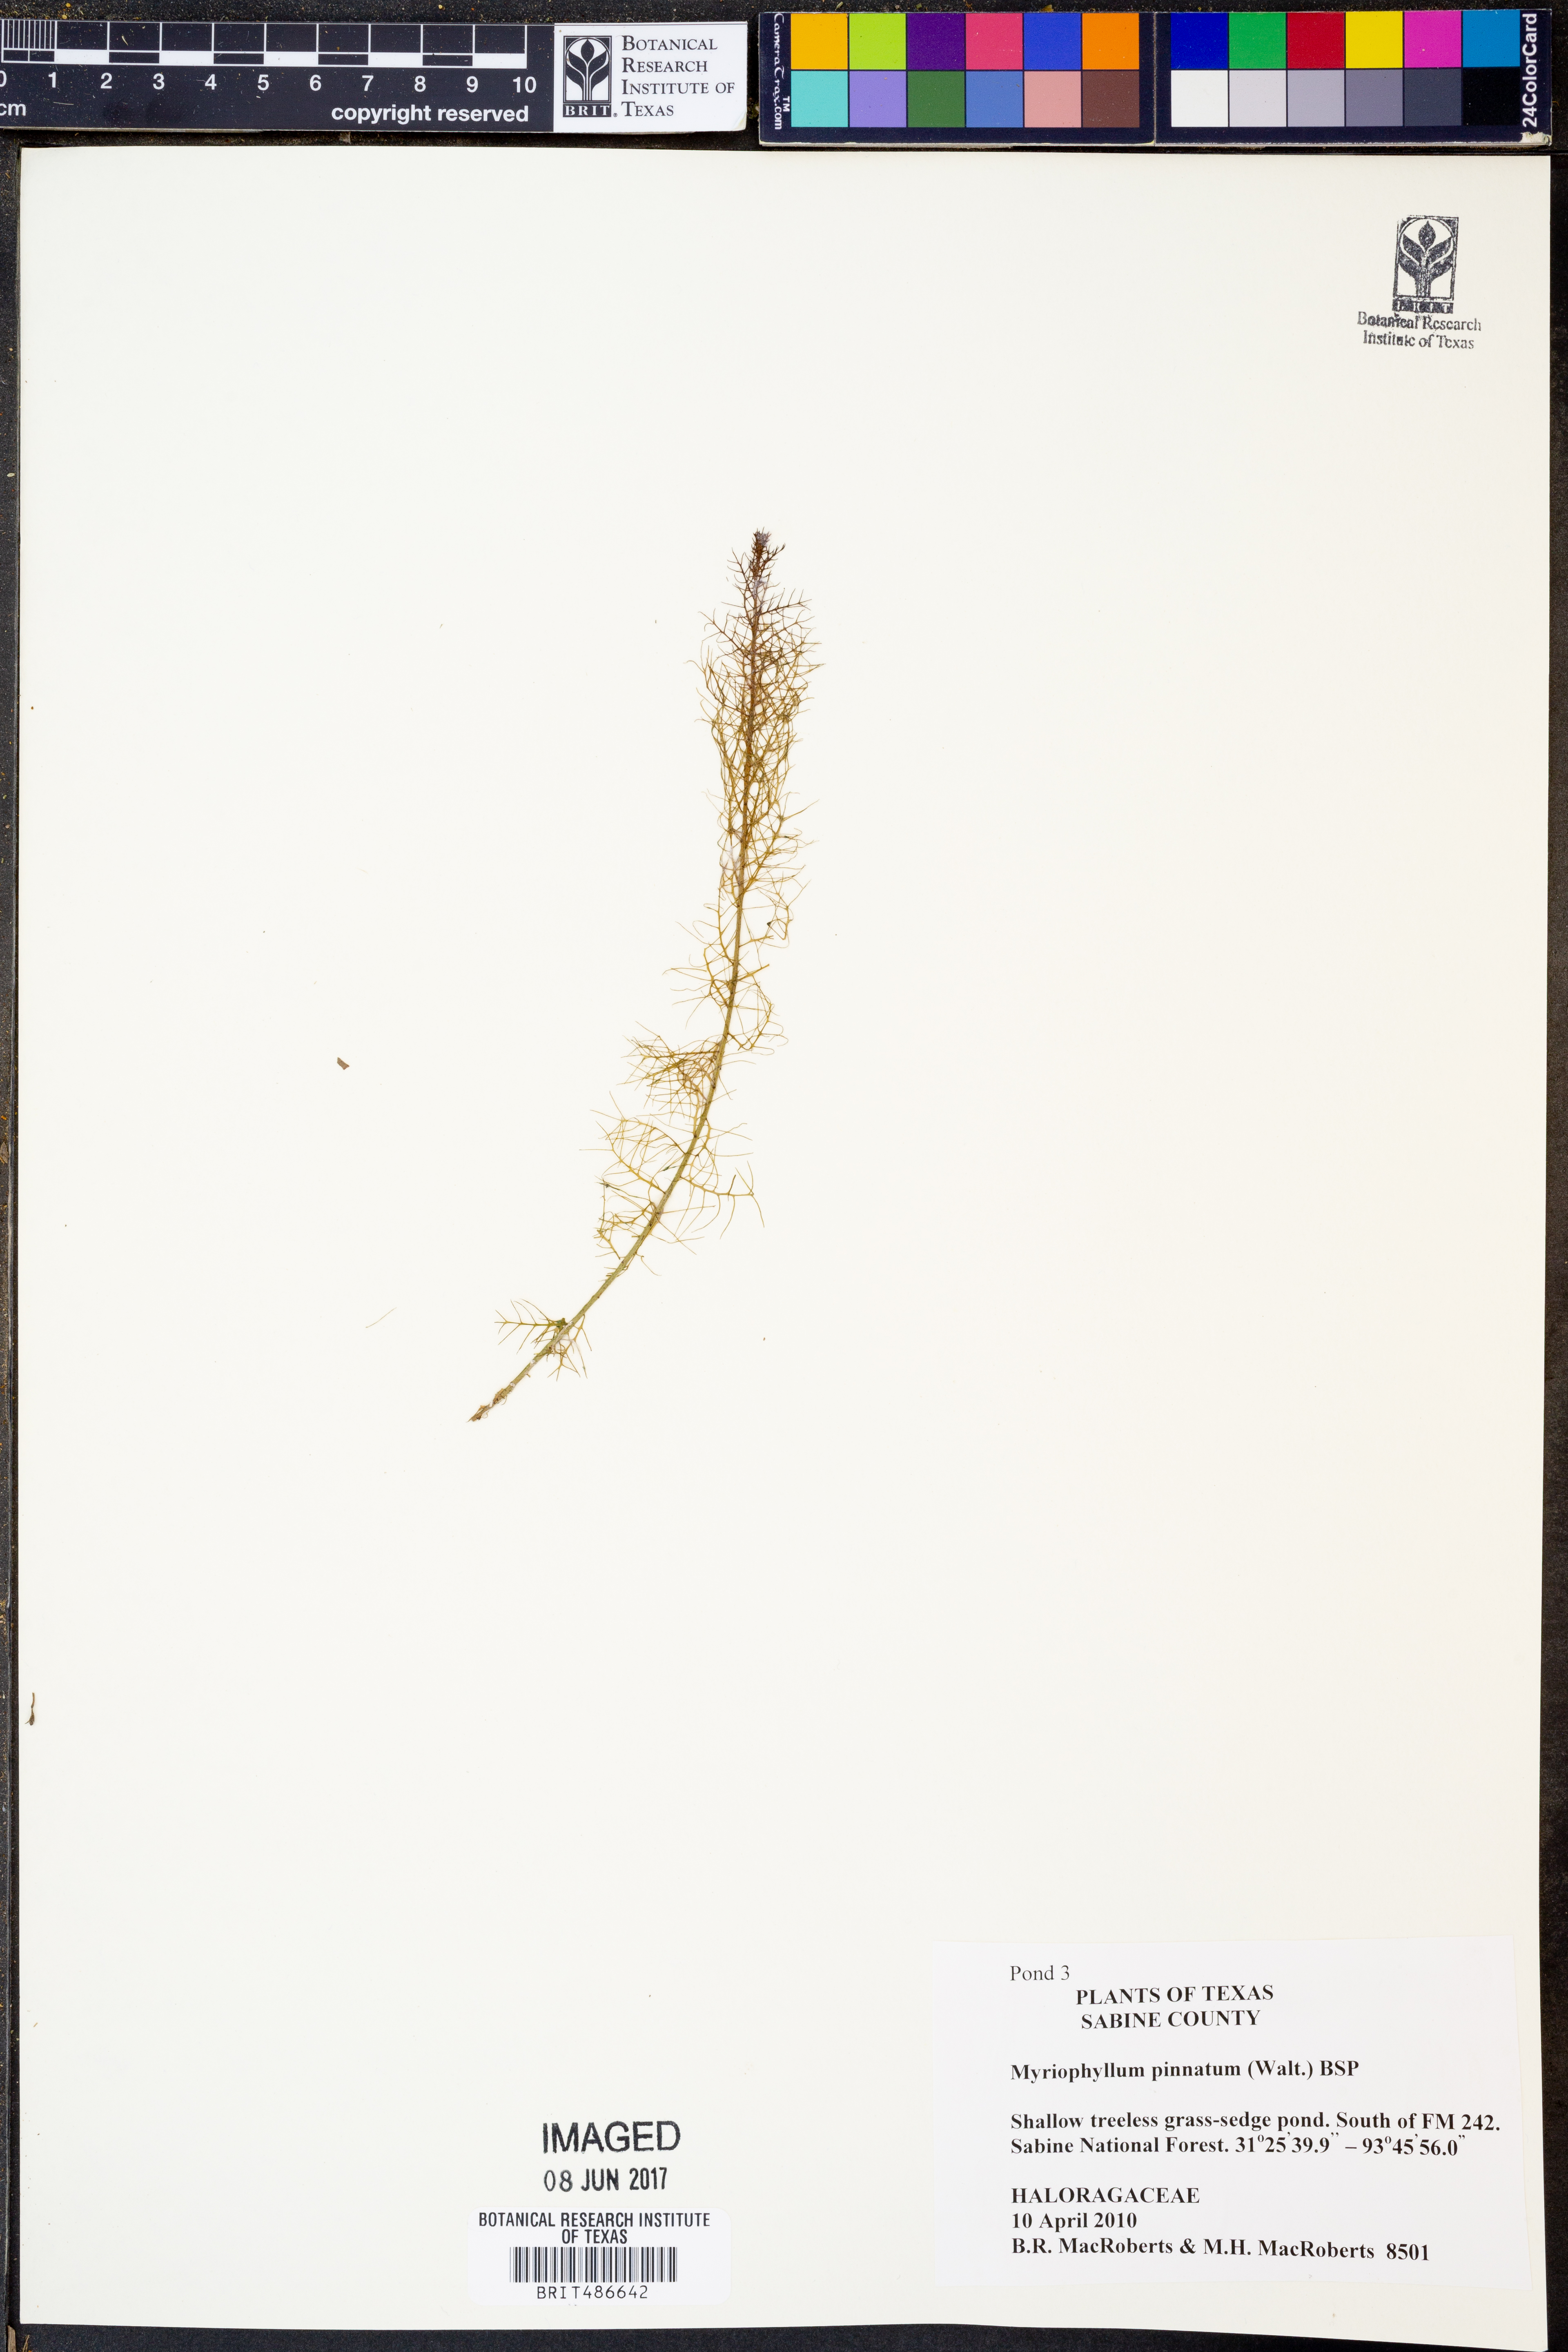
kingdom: Plantae
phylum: Tracheophyta
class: Magnoliopsida
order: Saxifragales
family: Haloragaceae
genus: Myriophyllum
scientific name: Myriophyllum pinnatum
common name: Cut-leaved water-milfoil
